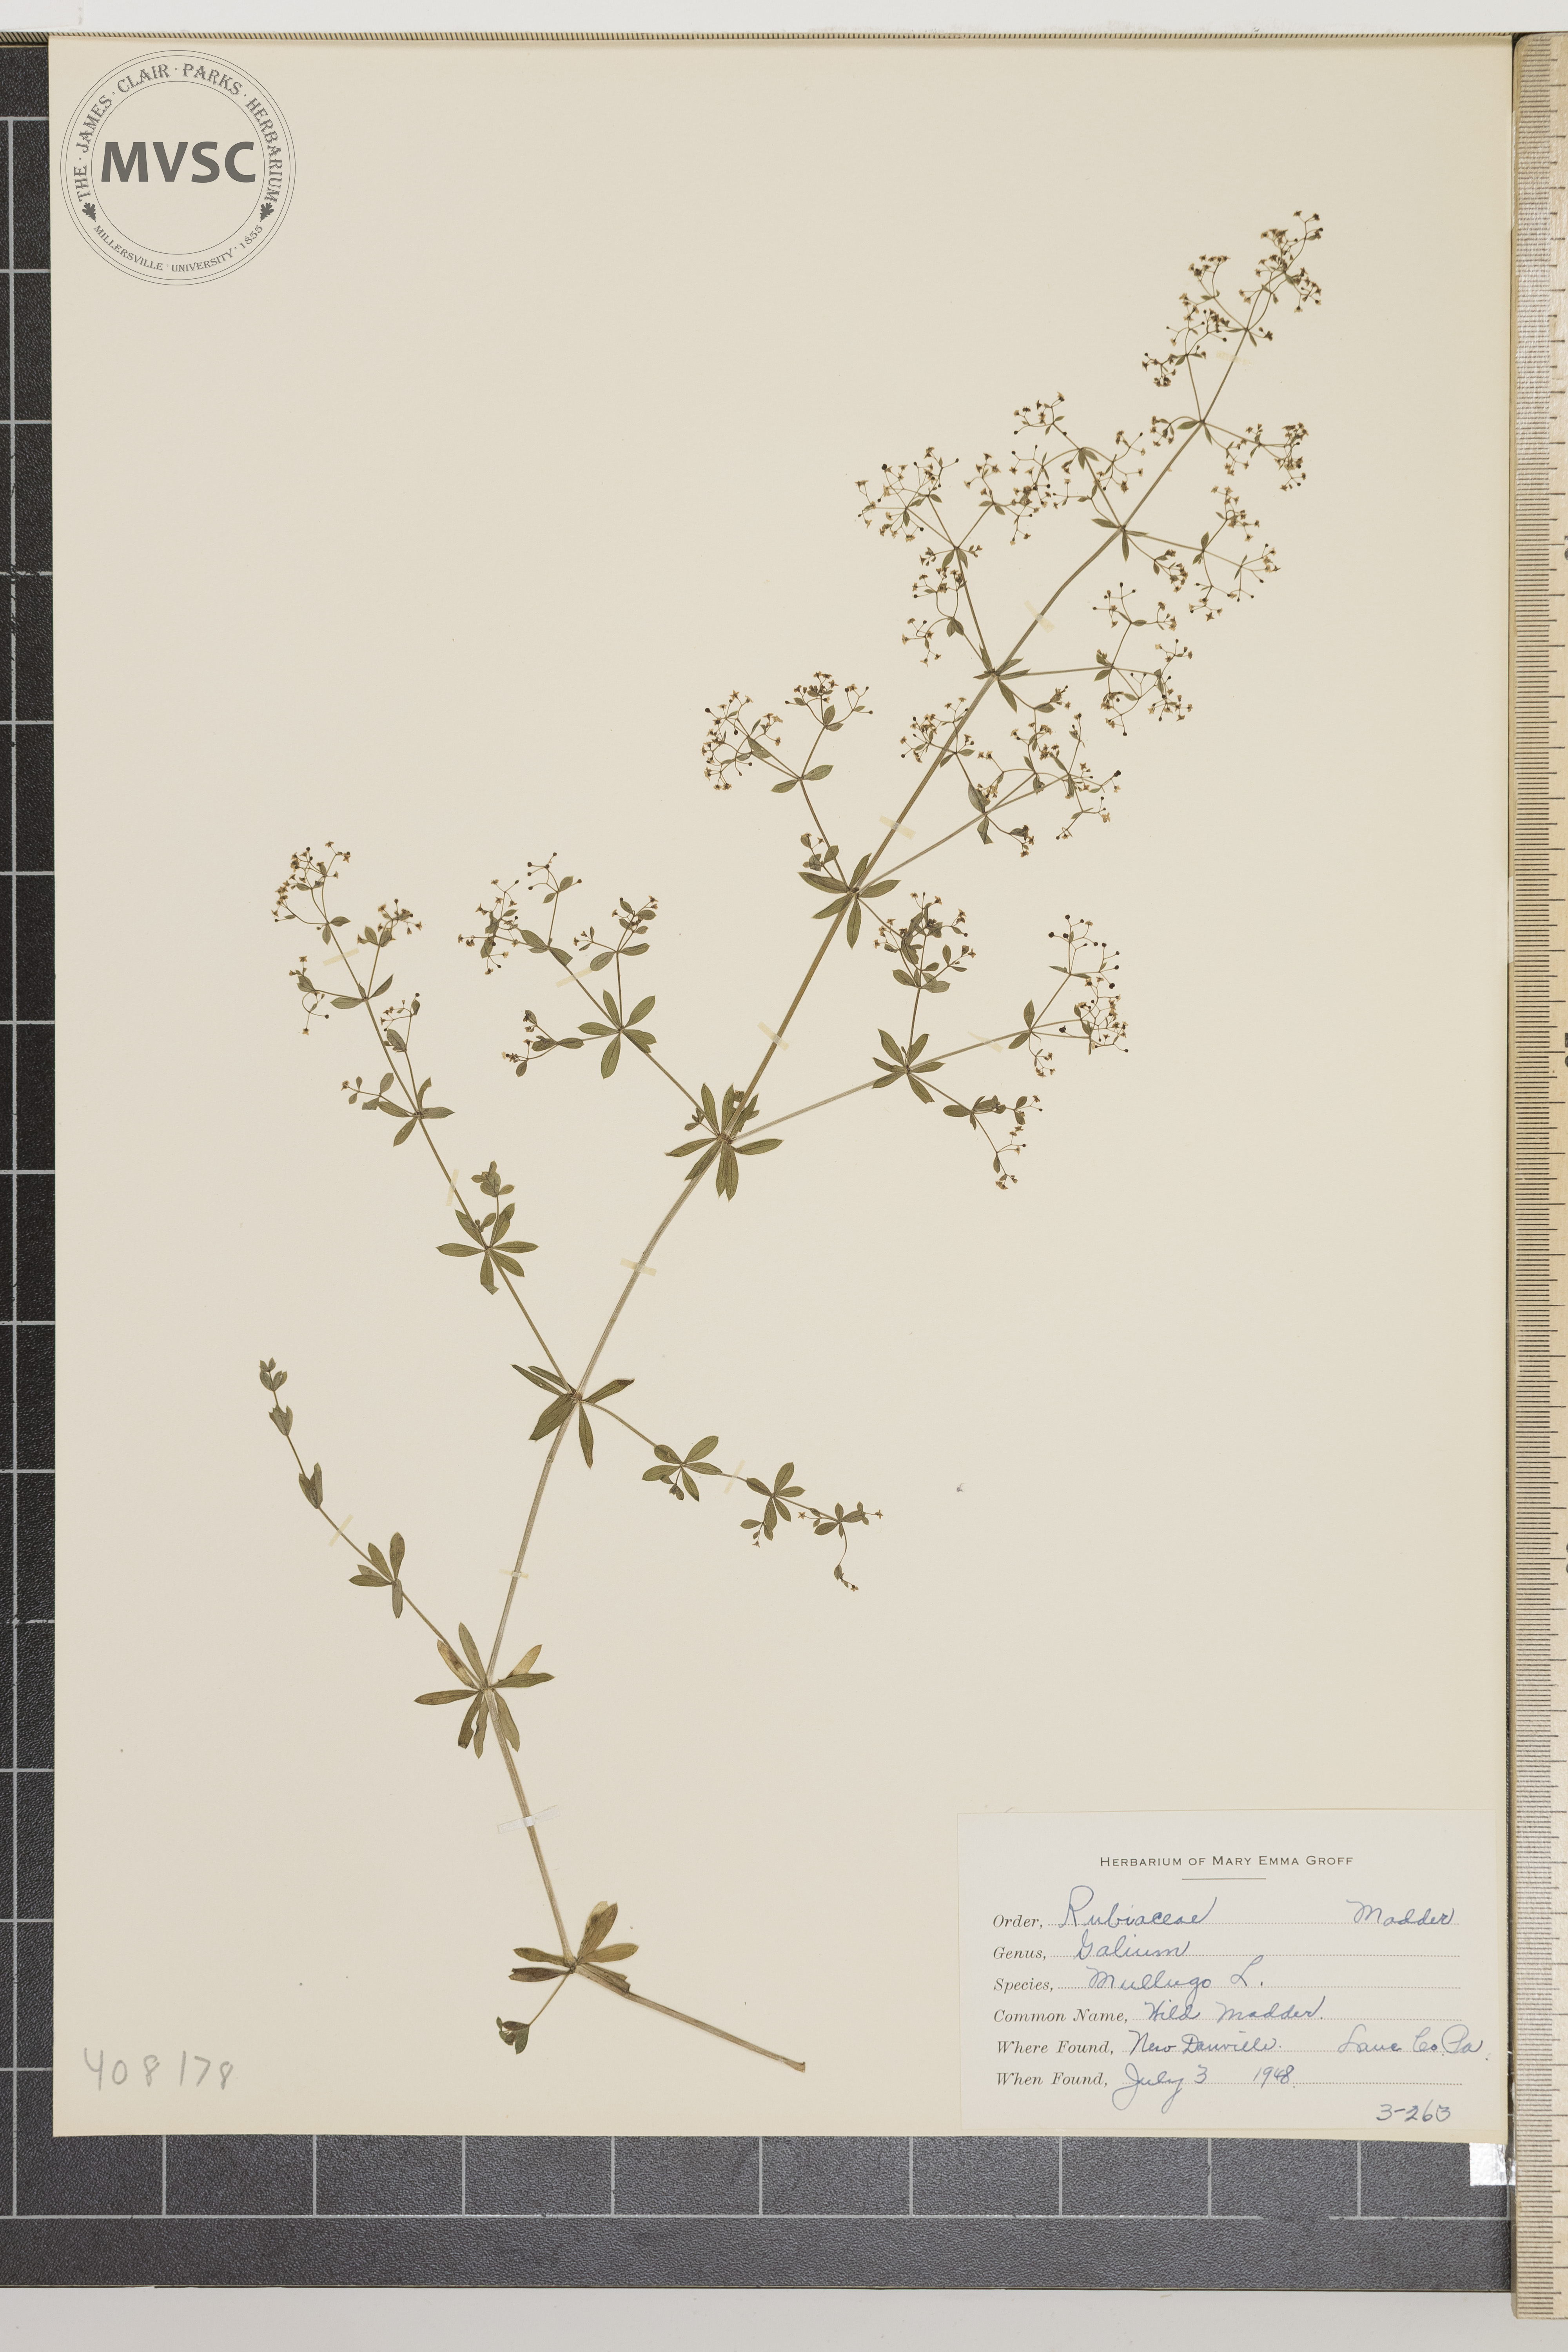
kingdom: Plantae
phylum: Tracheophyta
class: Magnoliopsida
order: Gentianales
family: Rubiaceae
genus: Galium
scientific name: Galium mollugo
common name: Wild Madder
